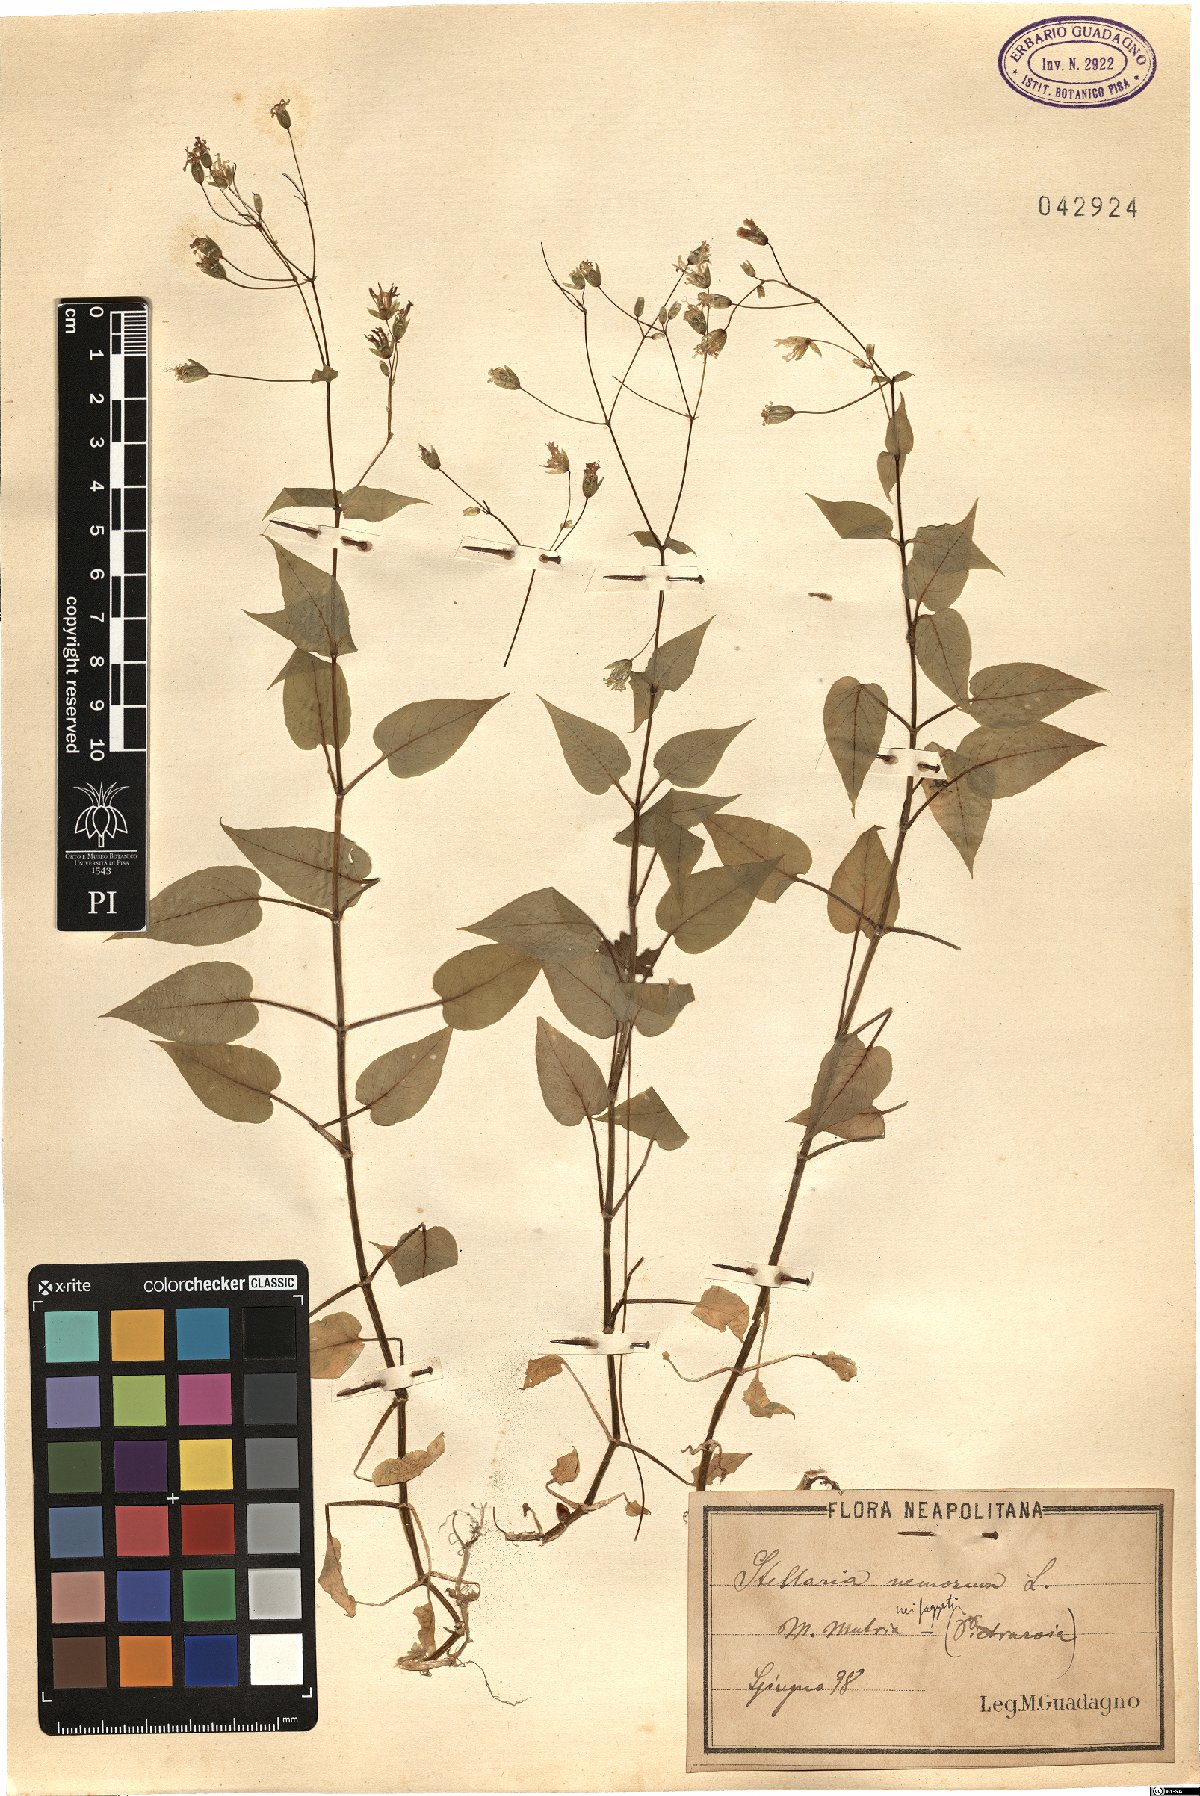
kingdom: Plantae
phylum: Tracheophyta
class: Magnoliopsida
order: Caryophyllales
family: Caryophyllaceae
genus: Stellaria
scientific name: Stellaria nemorum
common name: Wood stitchwort
